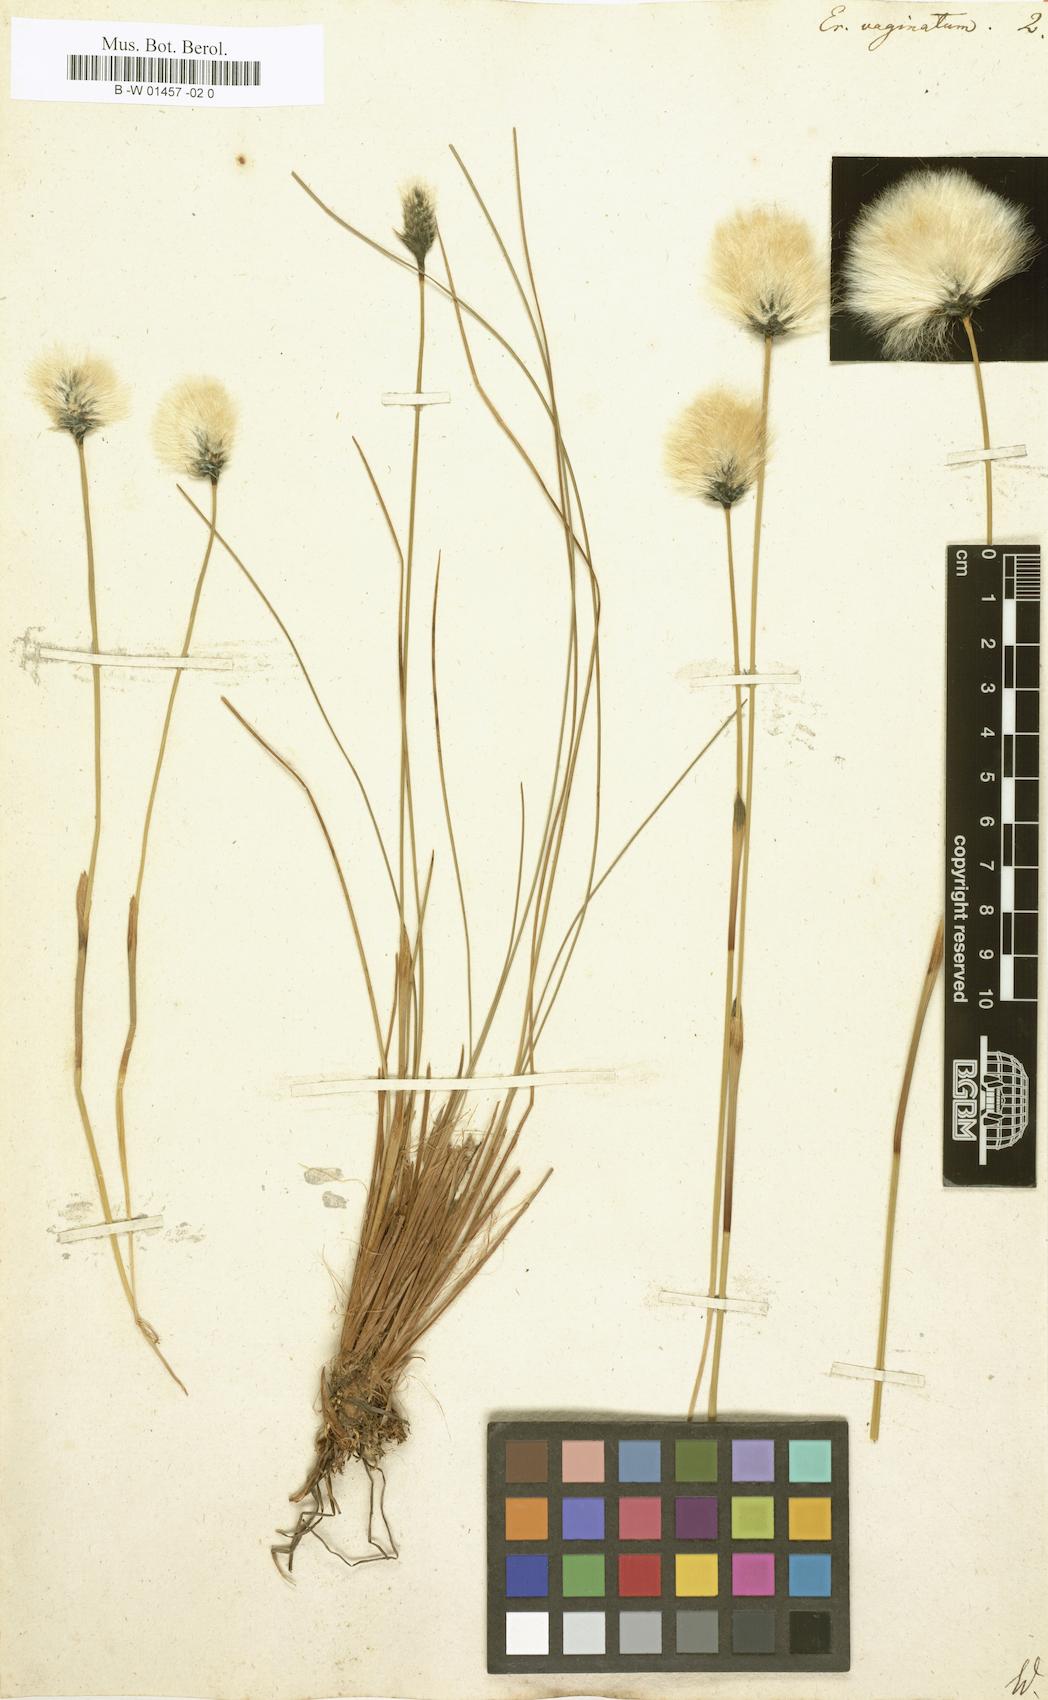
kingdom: Plantae
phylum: Tracheophyta
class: Liliopsida
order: Poales
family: Cyperaceae
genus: Eriophorum
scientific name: Eriophorum vaginatum
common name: Hare's-tail cottongrass
